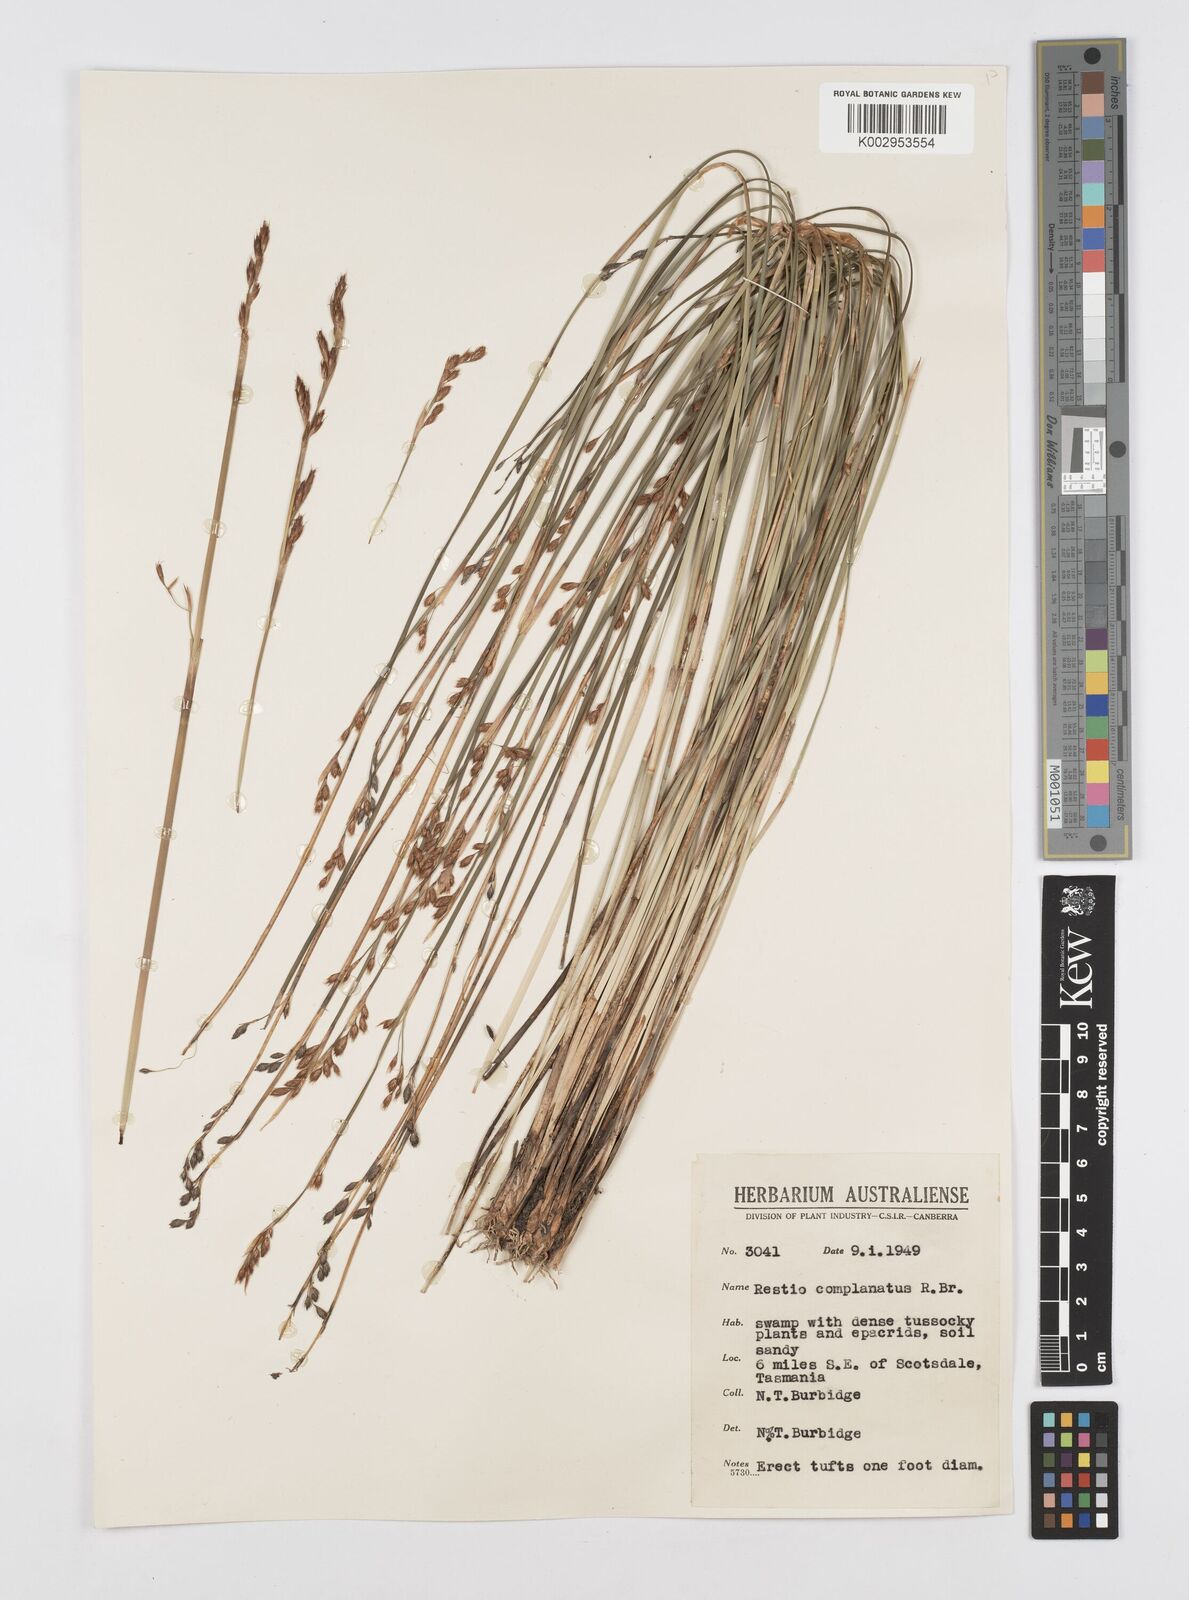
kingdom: Plantae
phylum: Tracheophyta
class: Liliopsida
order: Poales
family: Restionaceae
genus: Eurychorda
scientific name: Eurychorda complanata
